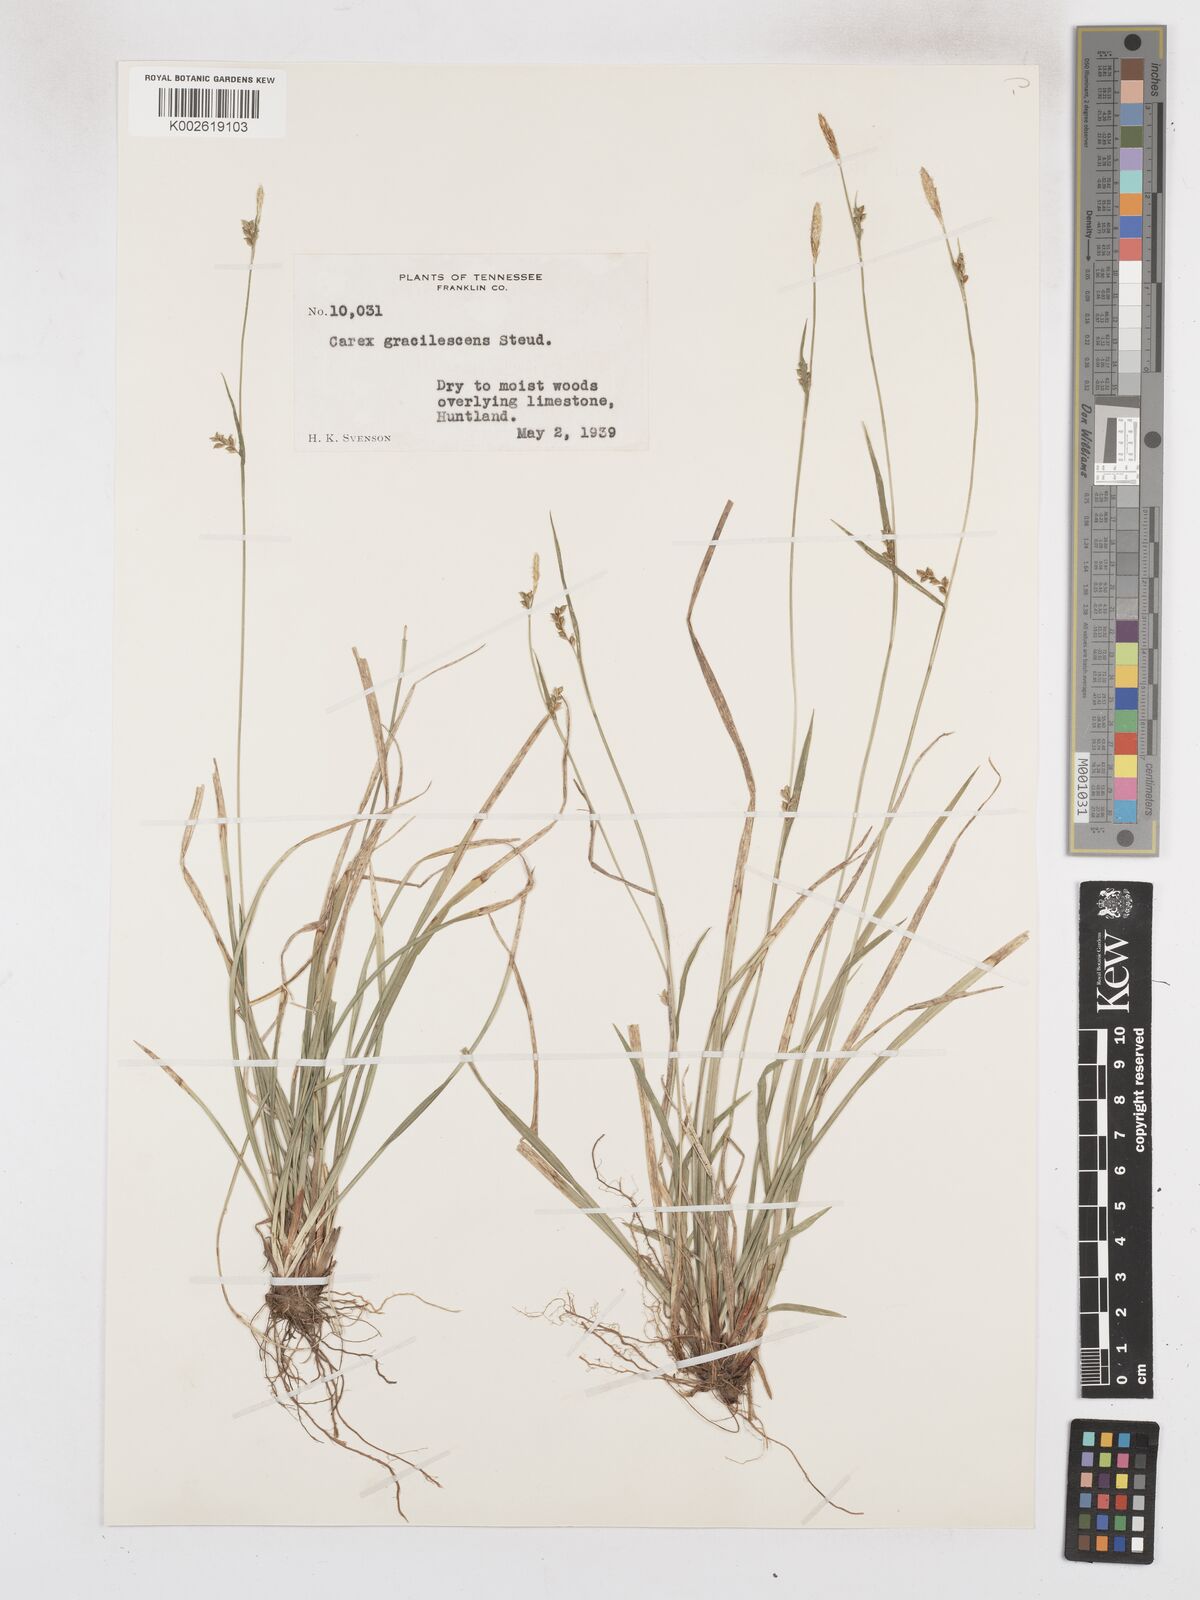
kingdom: Plantae
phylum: Tracheophyta
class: Liliopsida
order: Poales
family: Cyperaceae
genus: Carex
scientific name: Carex laxiflora
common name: Beech wood sedge
